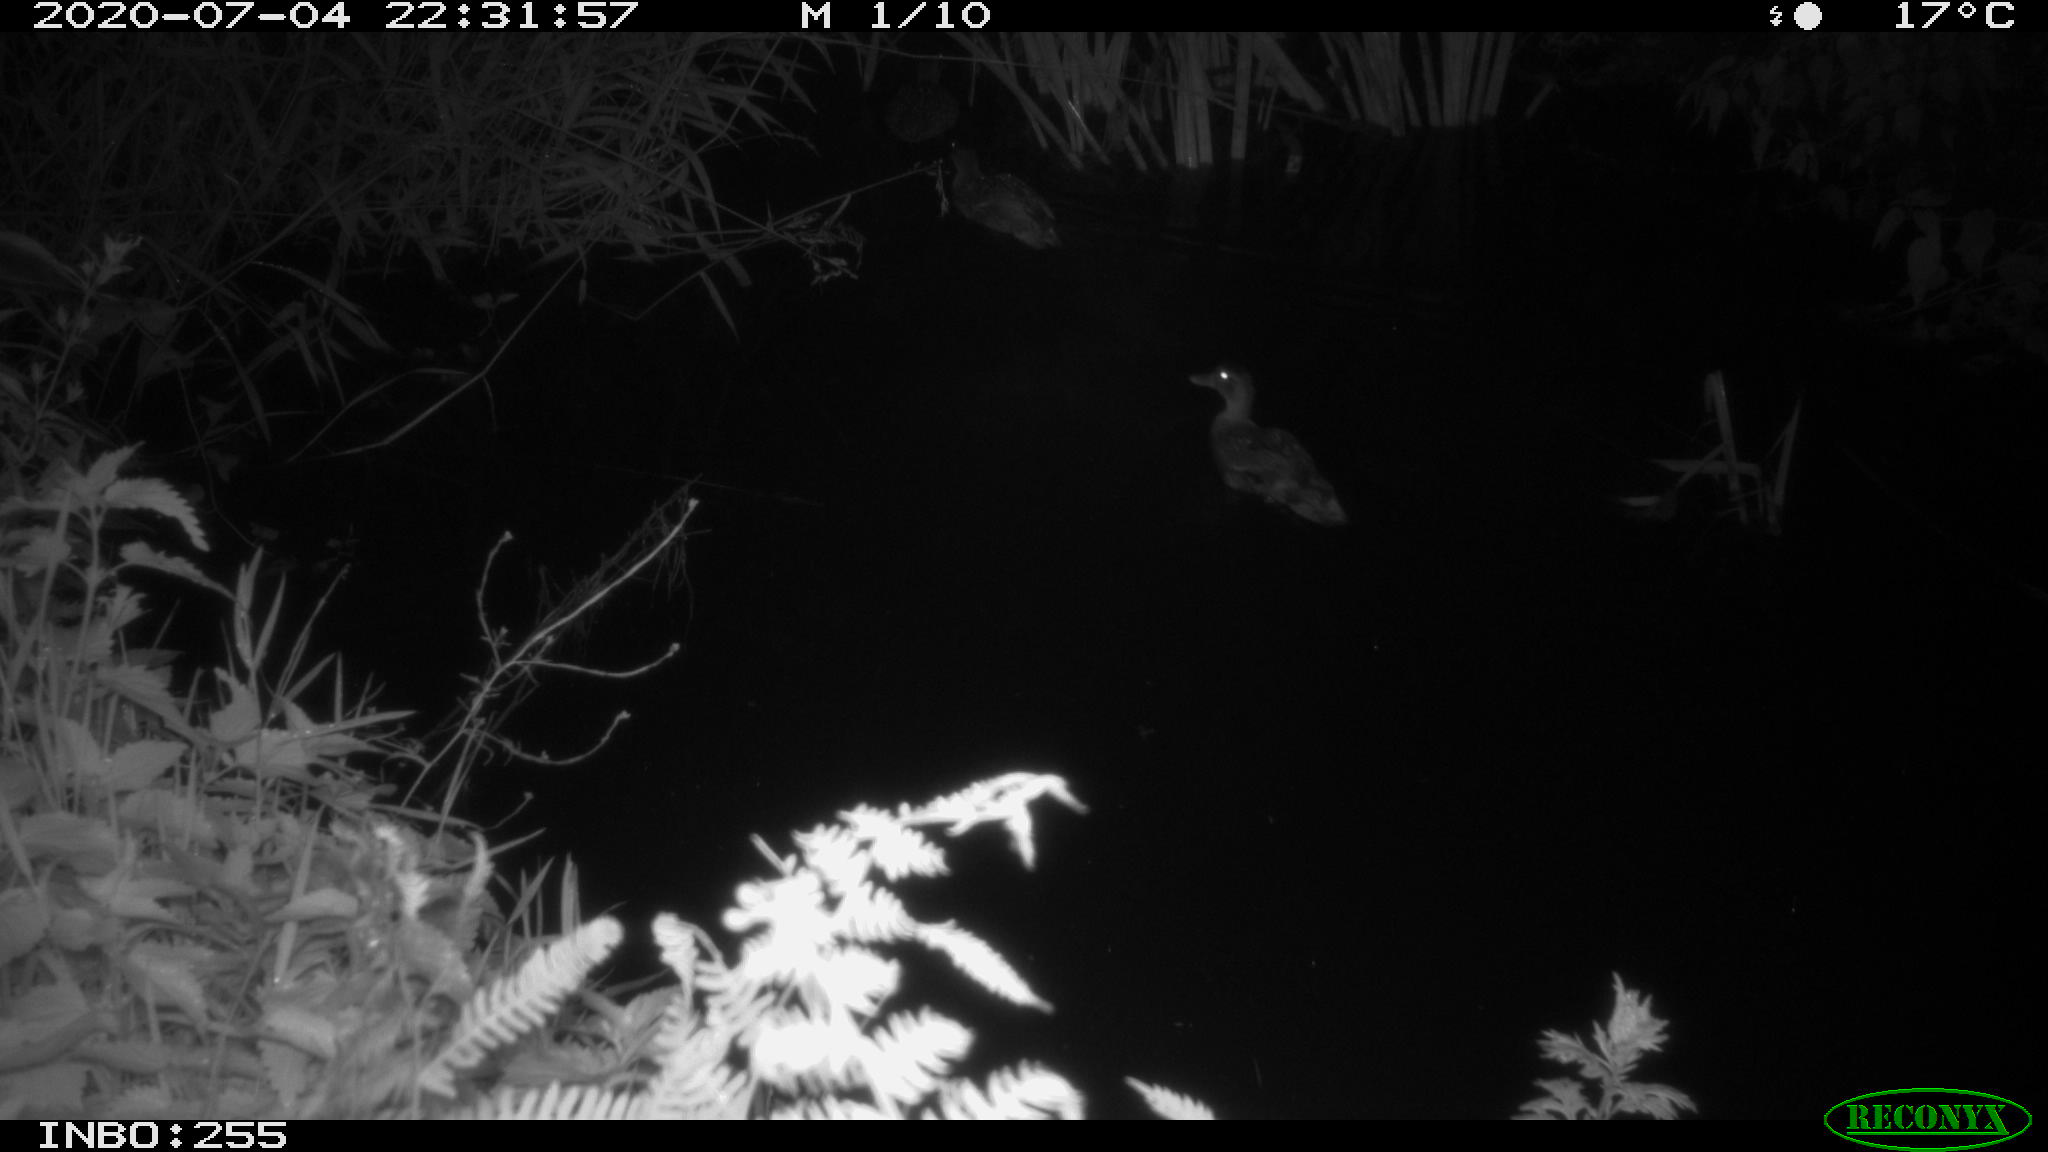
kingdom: Animalia
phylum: Chordata
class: Aves
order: Anseriformes
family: Anatidae
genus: Anas
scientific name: Anas platyrhynchos
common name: Mallard
